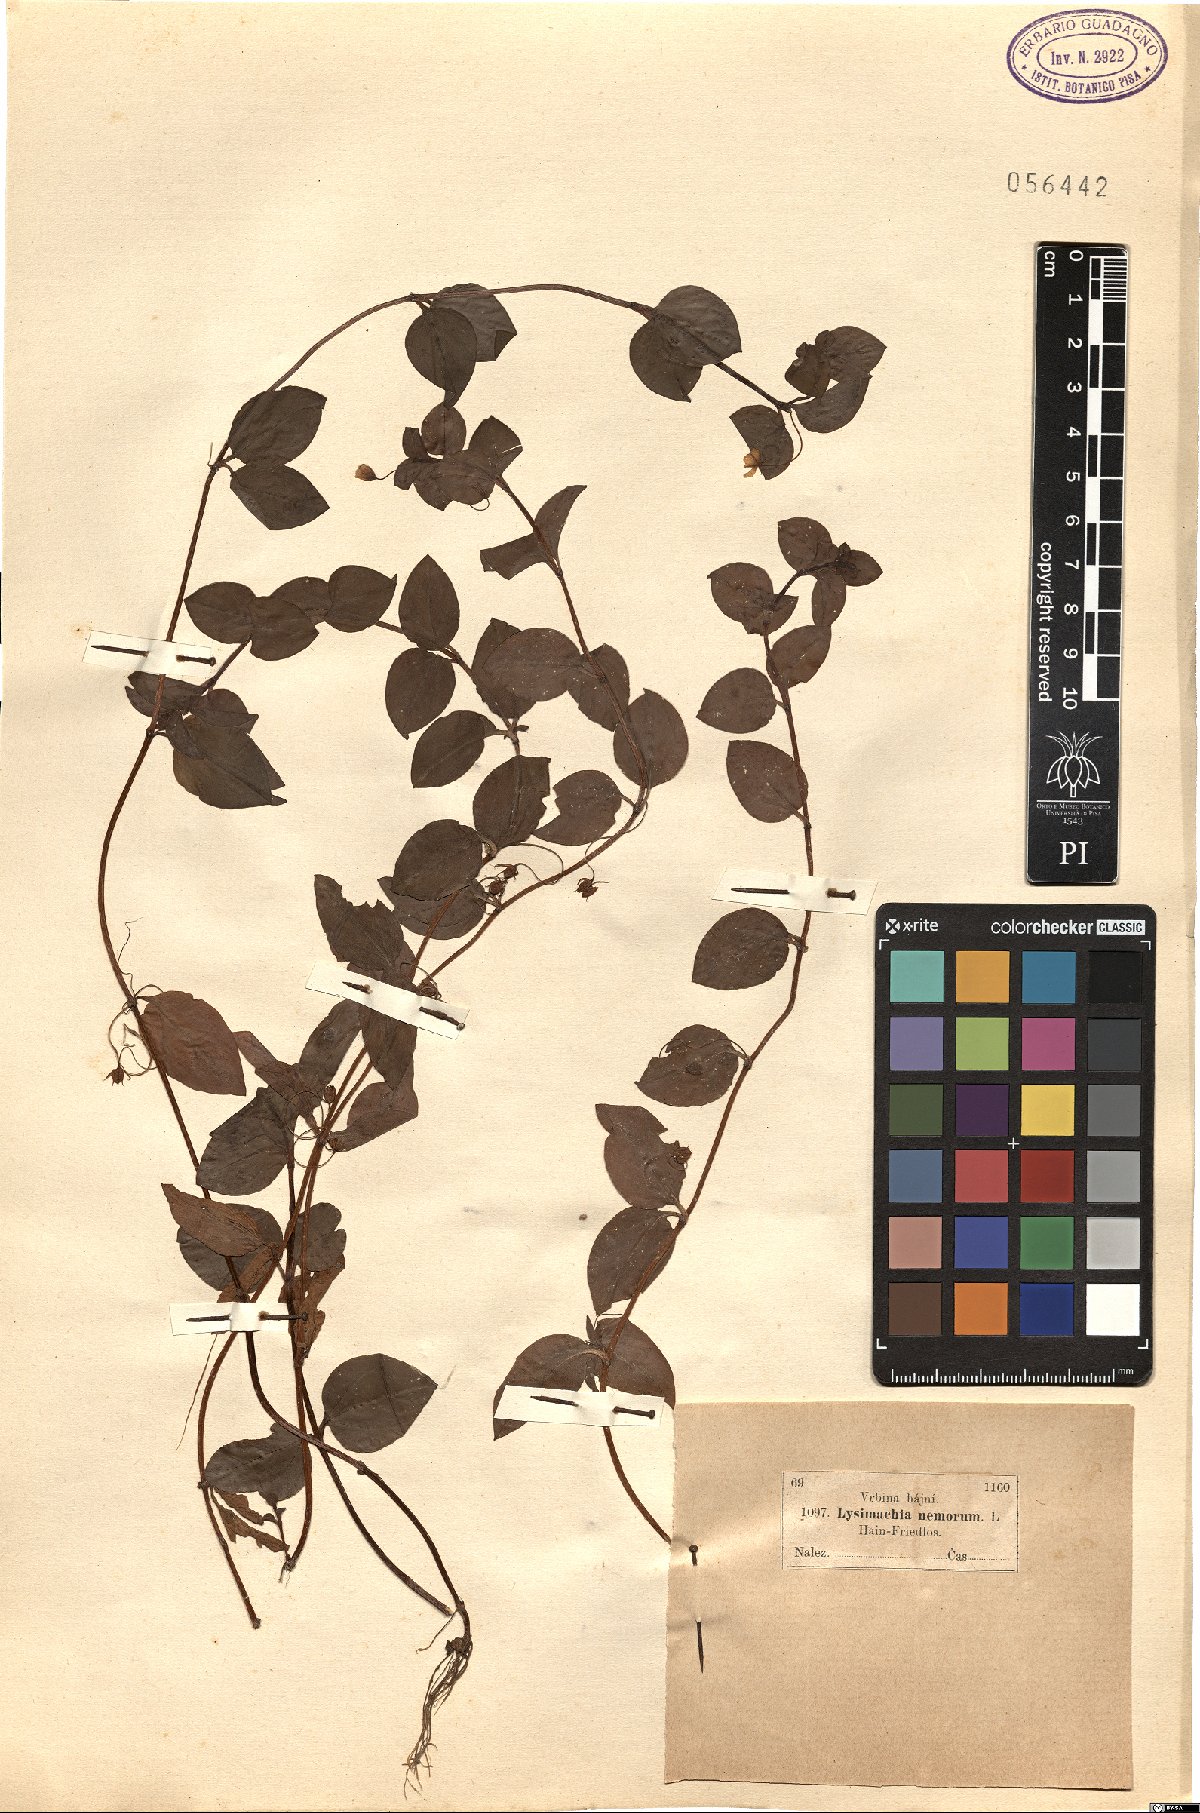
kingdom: Plantae
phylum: Tracheophyta
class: Magnoliopsida
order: Ericales
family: Primulaceae
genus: Lysimachia
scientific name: Lysimachia nemorum
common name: Yellow pimpernel
